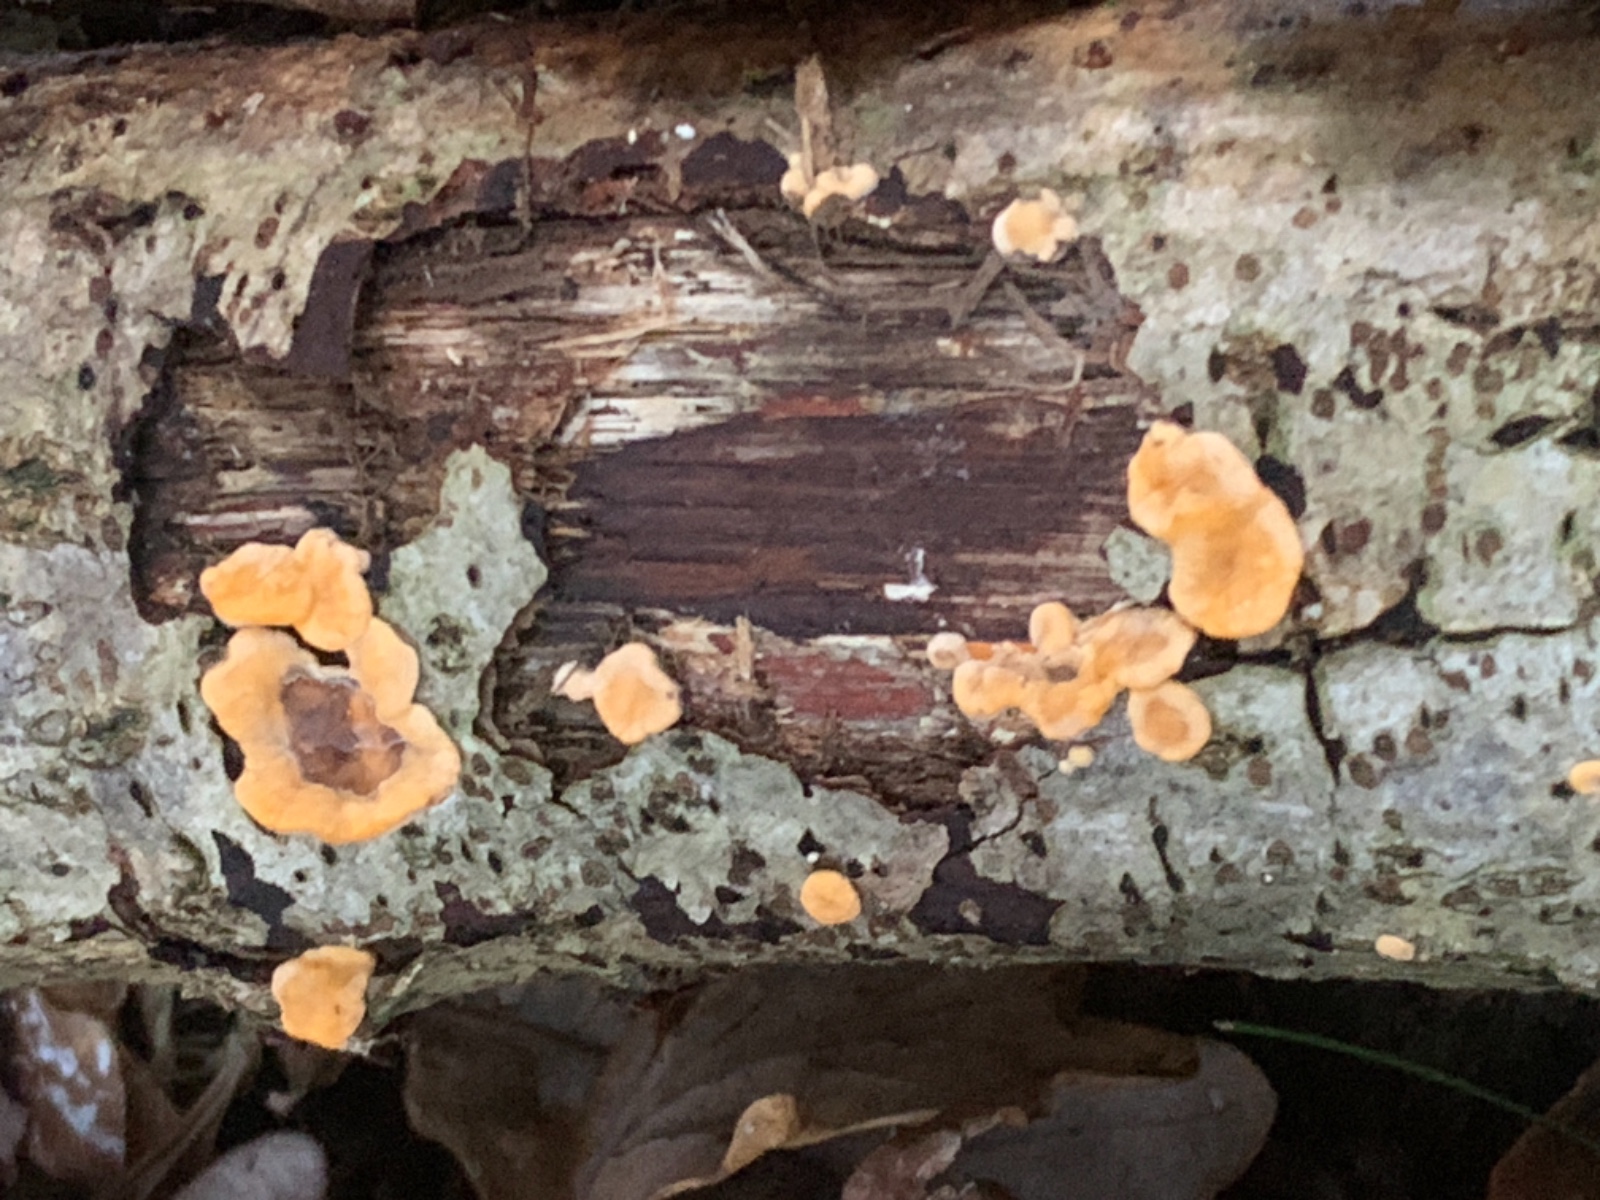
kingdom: Fungi
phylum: Basidiomycota
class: Agaricomycetes
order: Russulales
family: Stereaceae
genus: Stereum
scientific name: Stereum hirsutum
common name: håret lædersvamp
